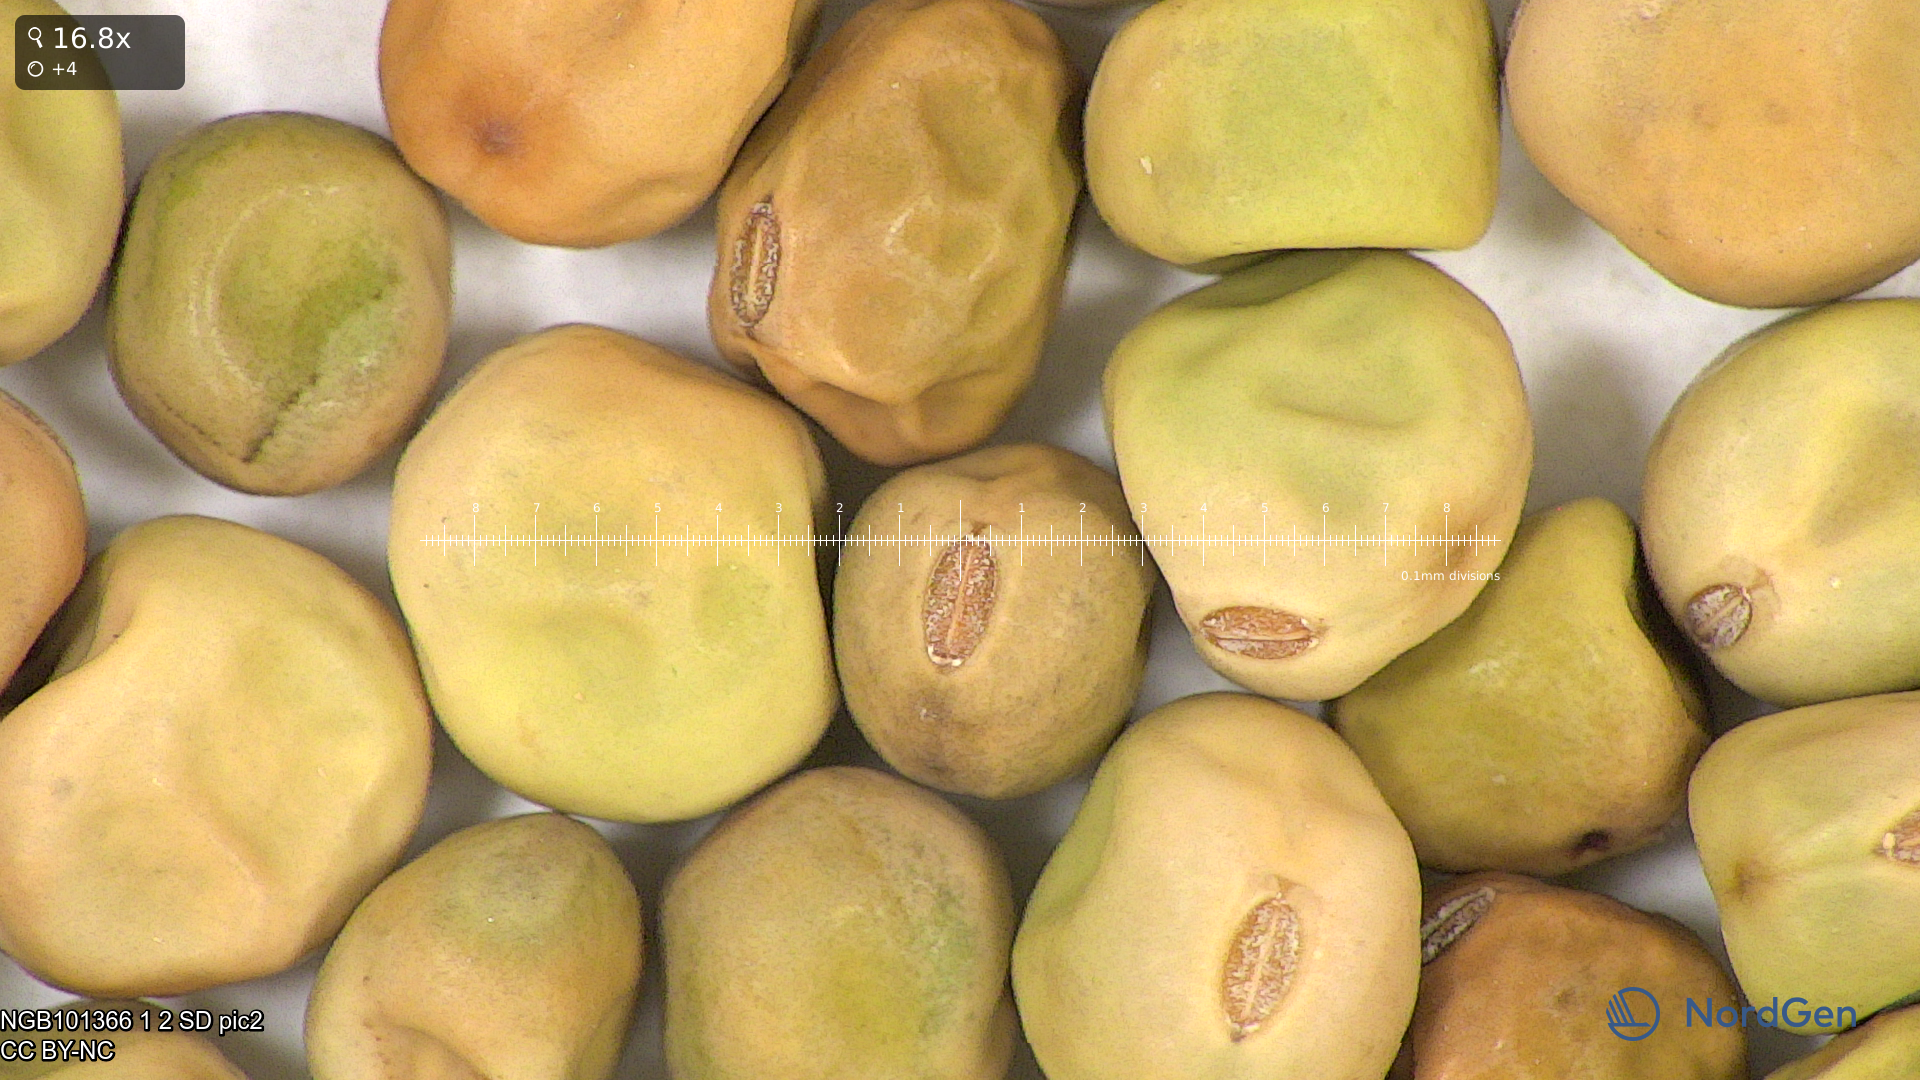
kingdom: Plantae
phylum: Tracheophyta
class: Magnoliopsida
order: Fabales
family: Fabaceae
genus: Lathyrus
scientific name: Lathyrus oleraceus
